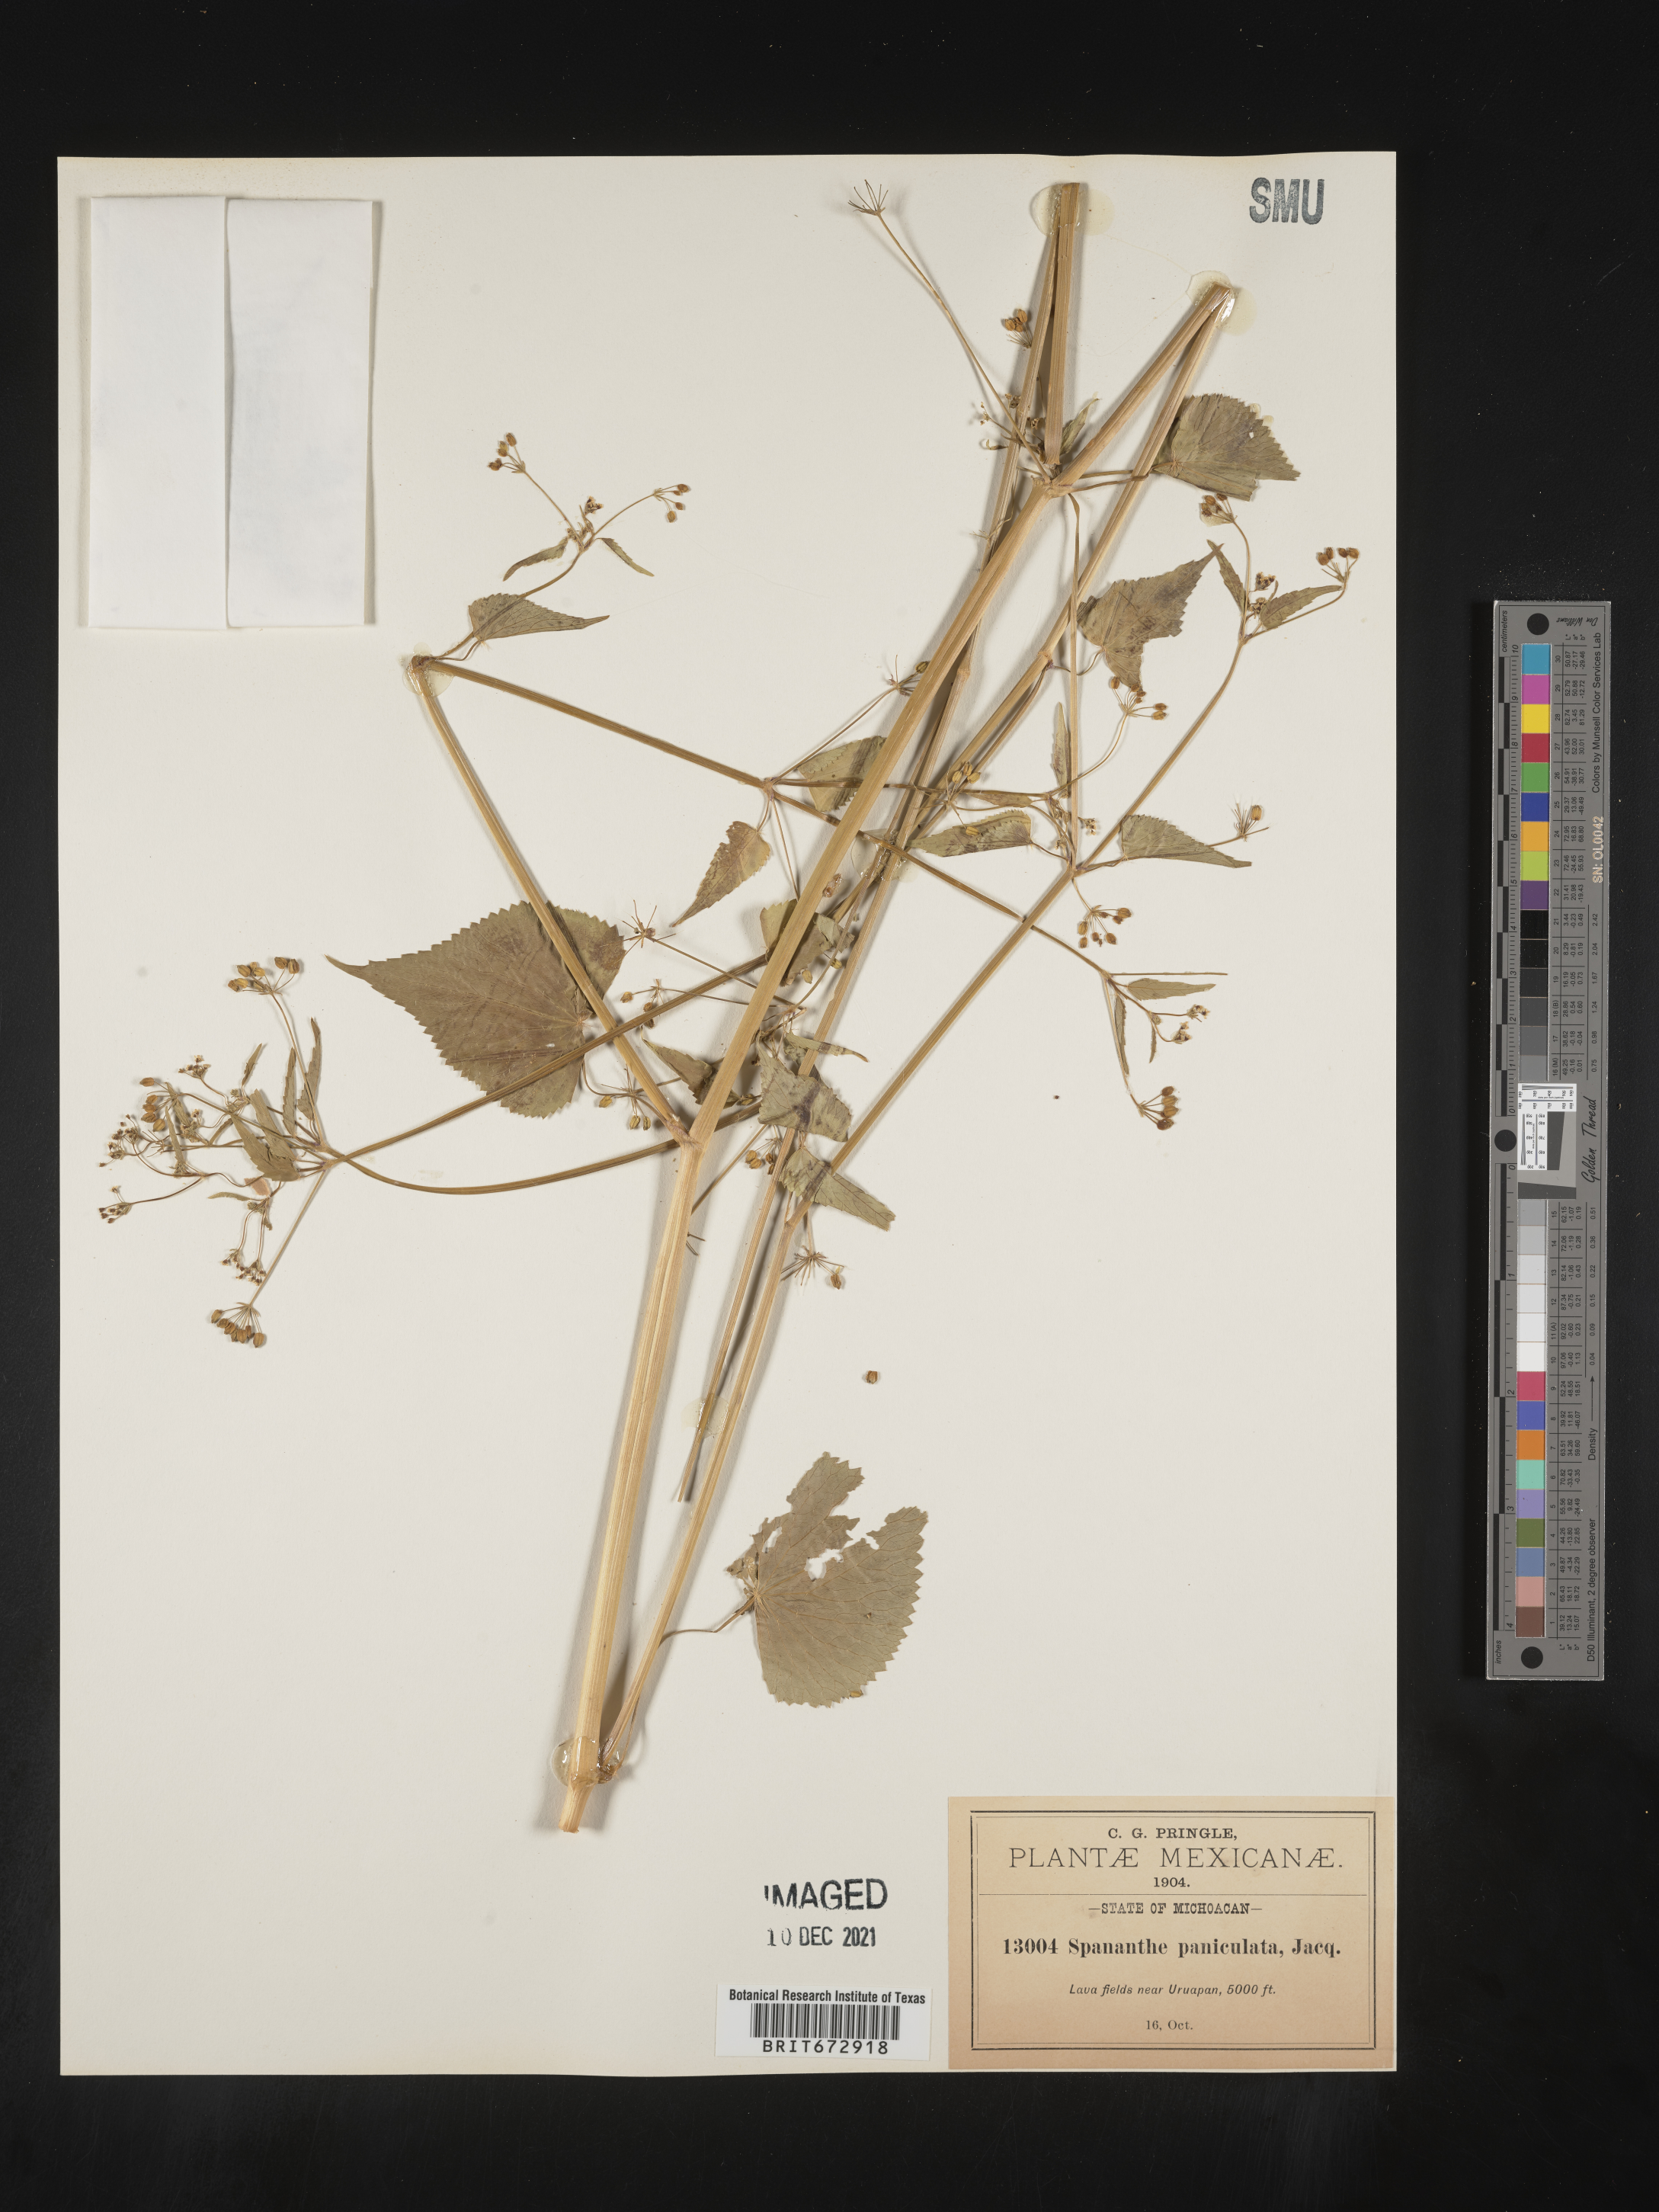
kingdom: Plantae
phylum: Tracheophyta
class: Magnoliopsida
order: Apiales
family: Apiaceae
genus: Spananthe
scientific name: Spananthe
